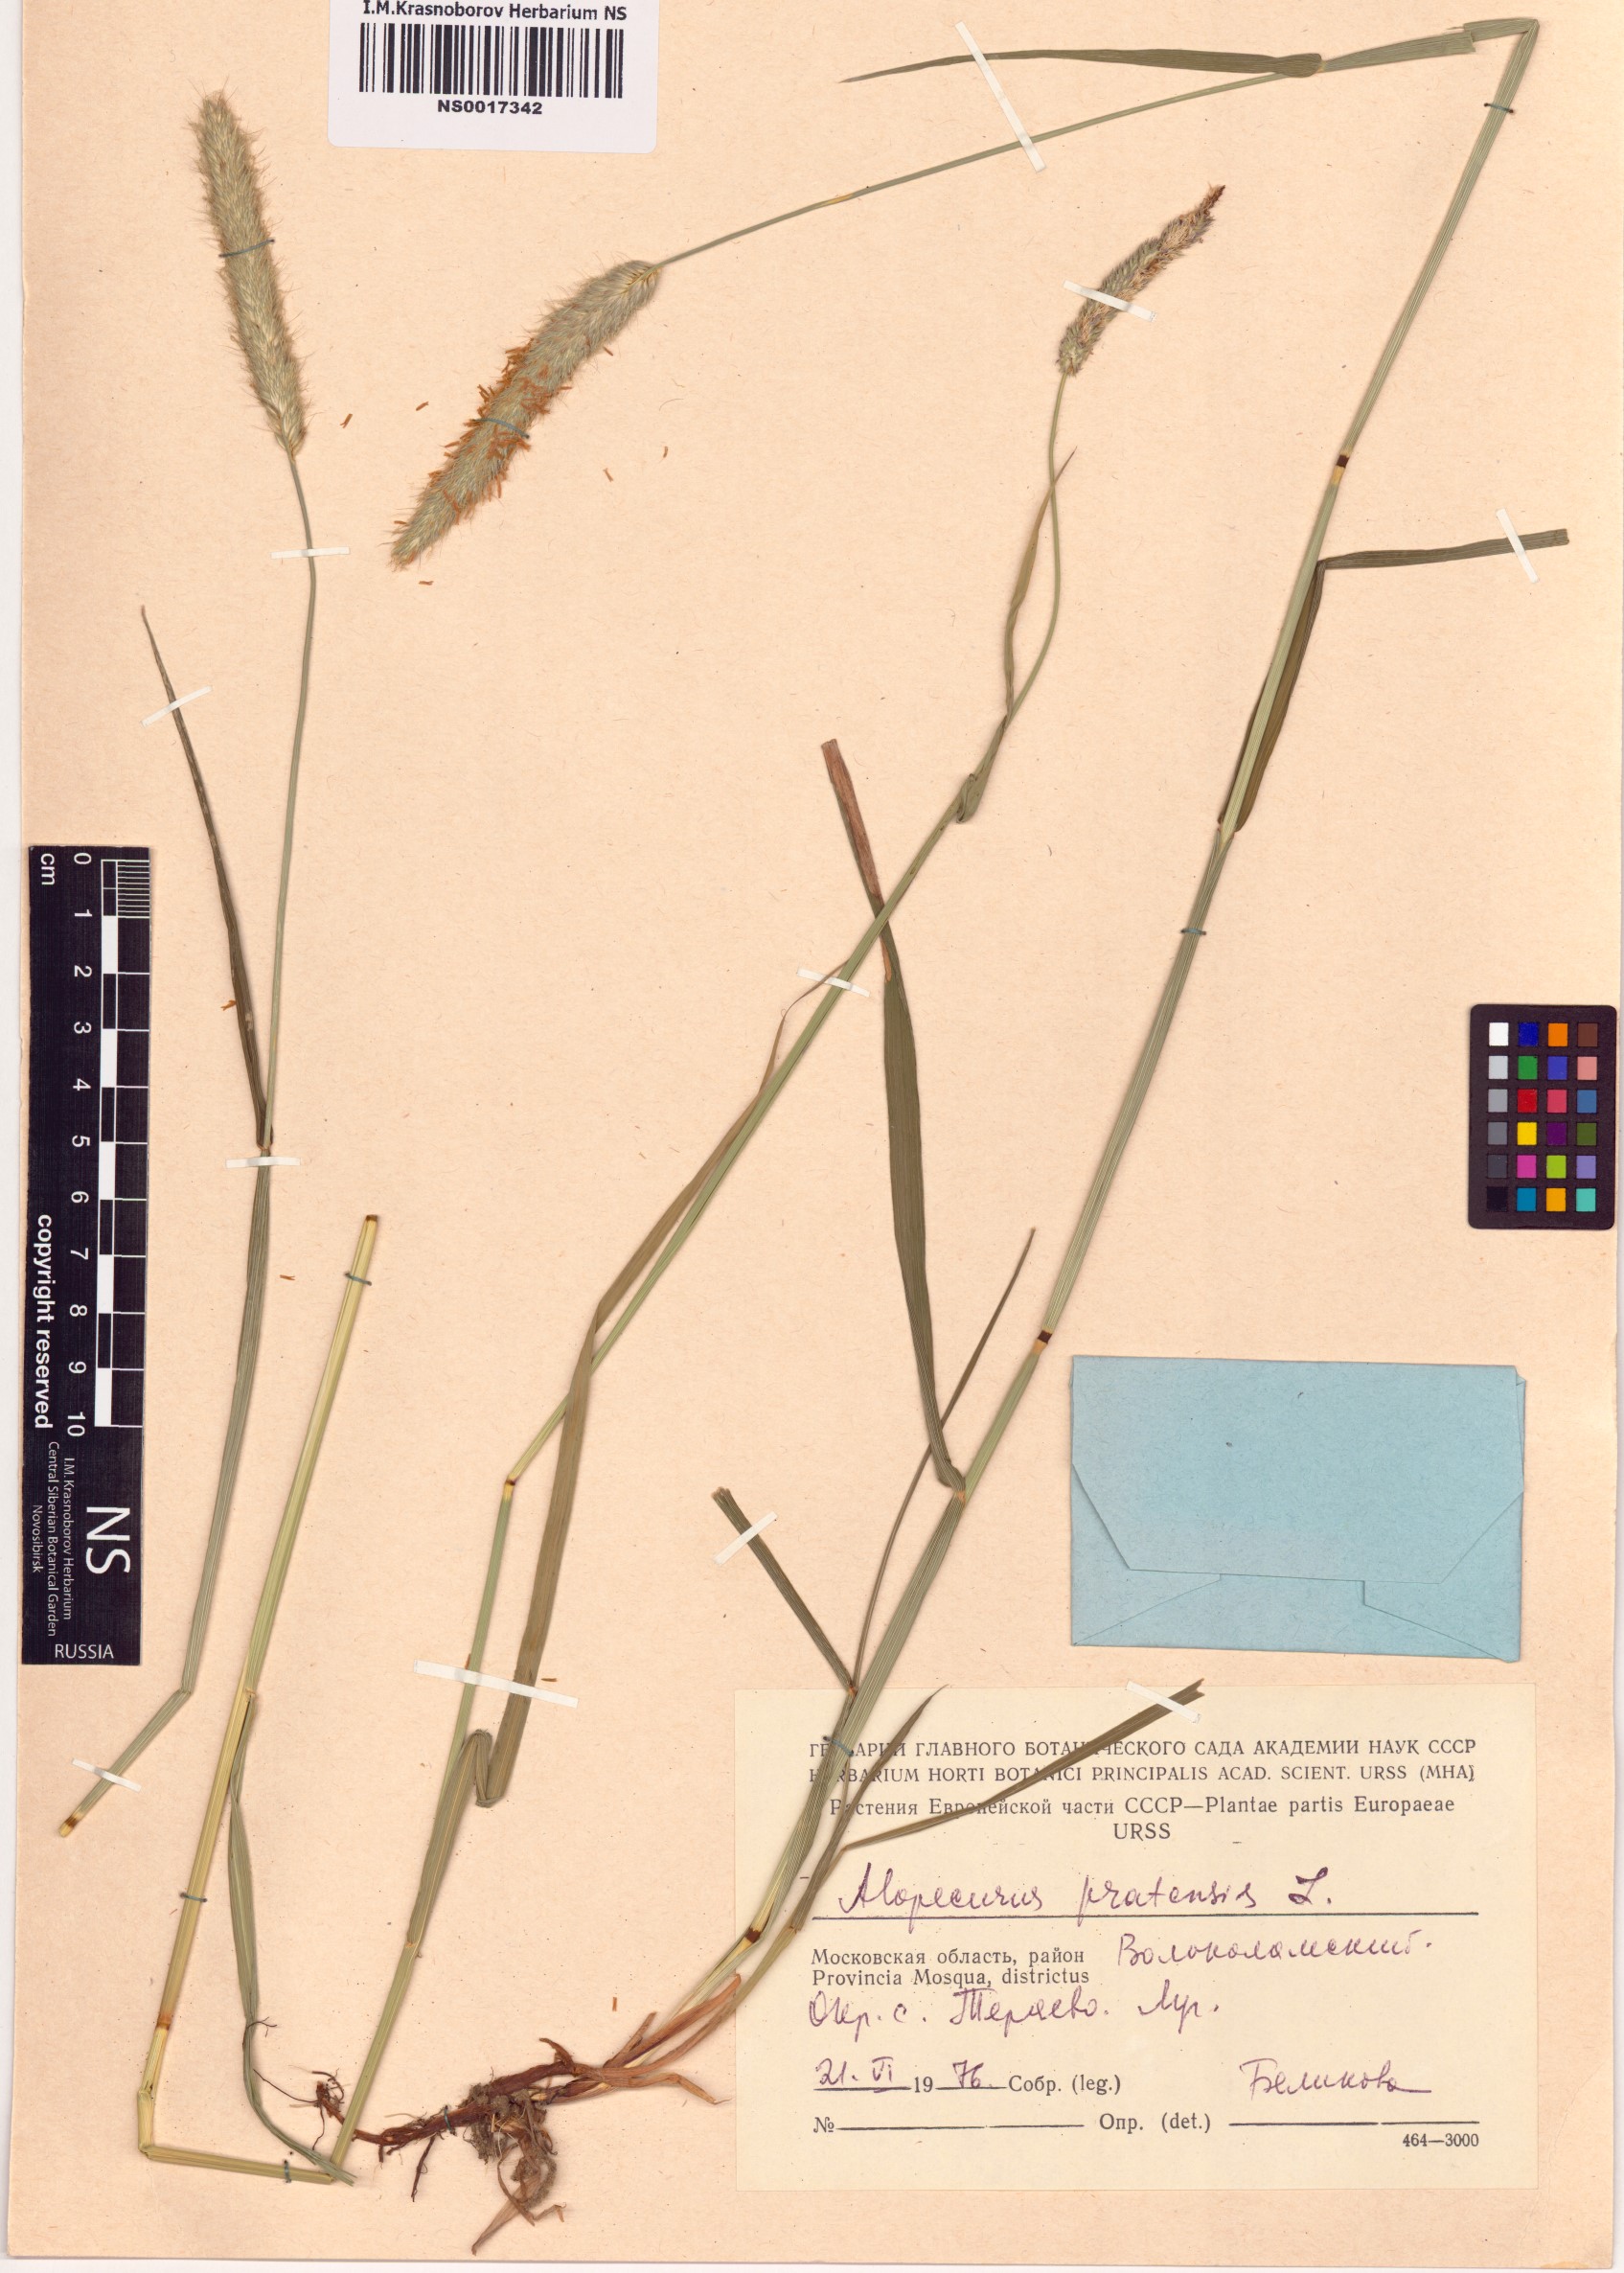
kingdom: Plantae
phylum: Tracheophyta
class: Liliopsida
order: Poales
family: Poaceae
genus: Alopecurus
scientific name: Alopecurus pratensis
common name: Meadow foxtail
